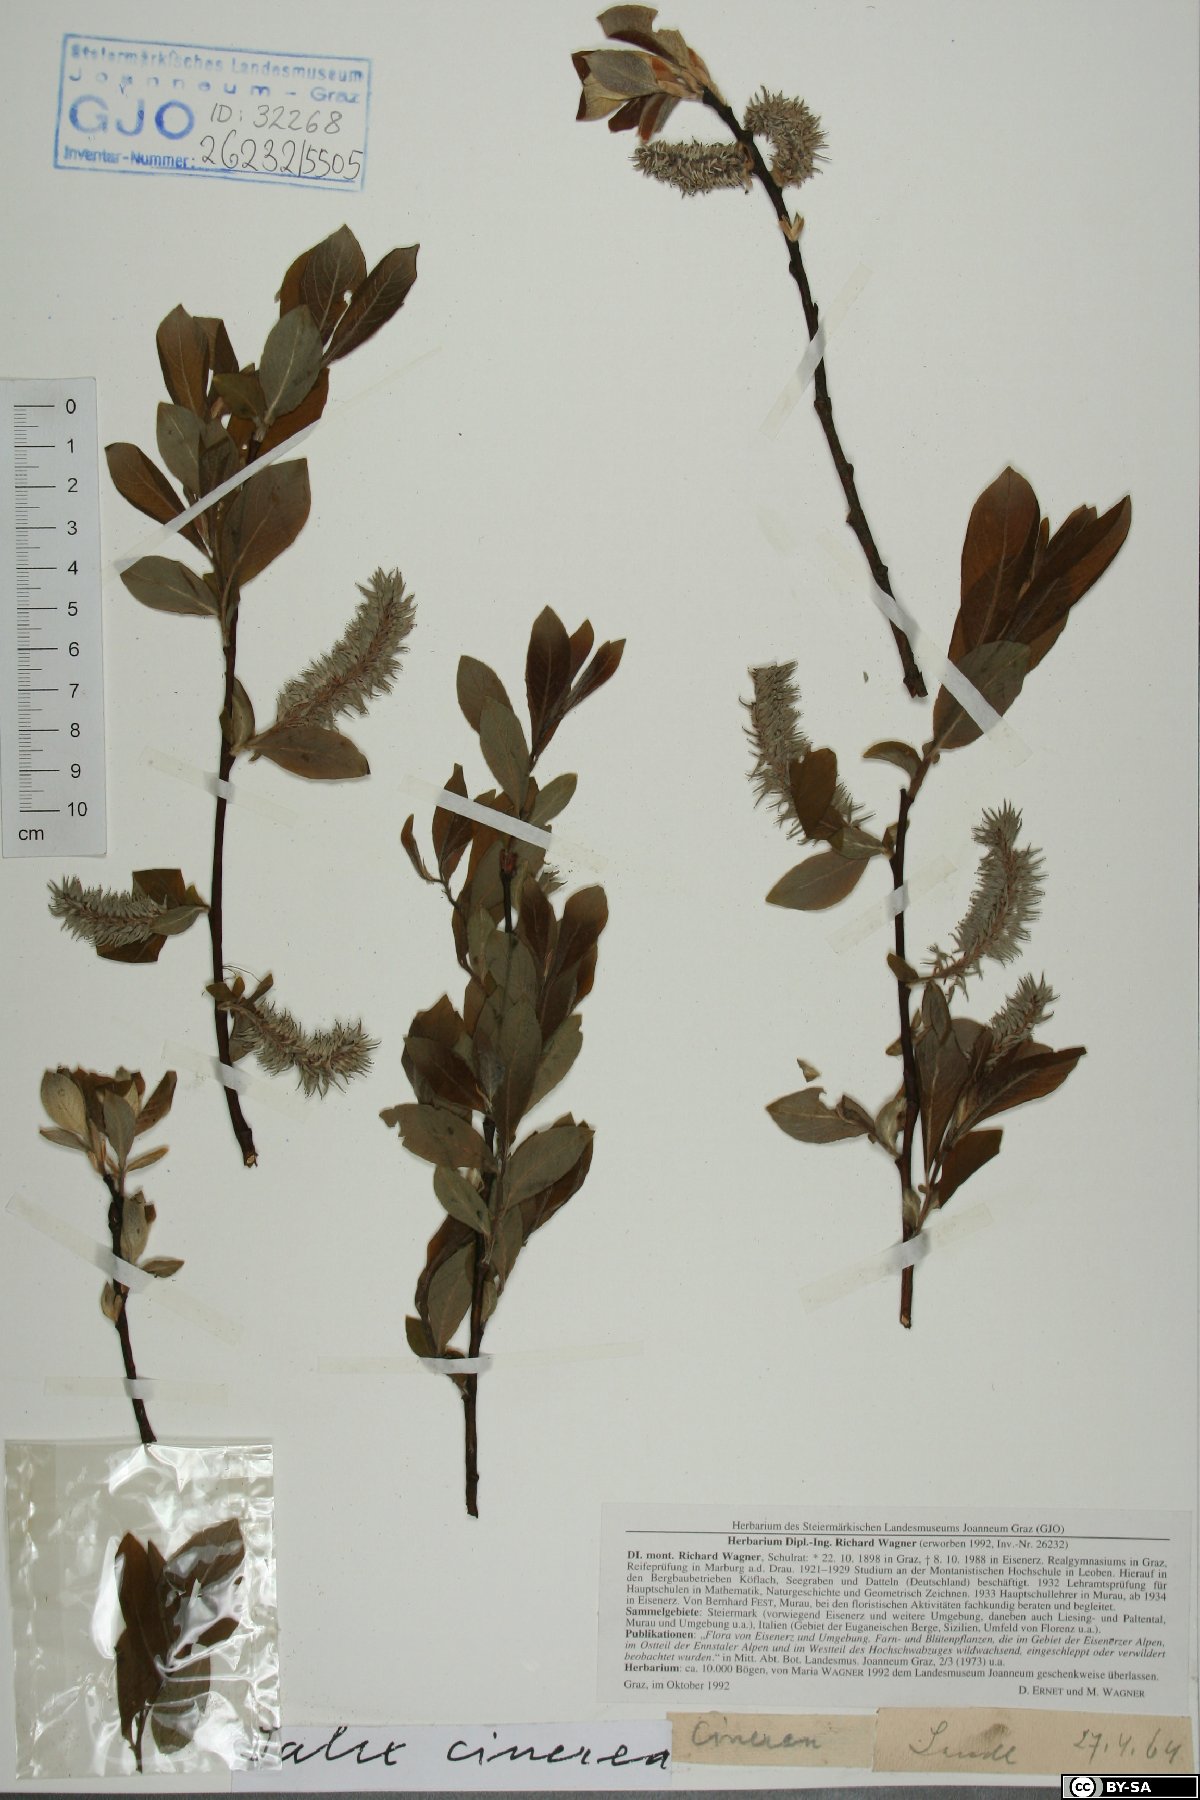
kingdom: Plantae
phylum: Tracheophyta
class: Magnoliopsida
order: Malpighiales
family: Salicaceae
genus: Salix
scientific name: Salix cinerea
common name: Common sallow
